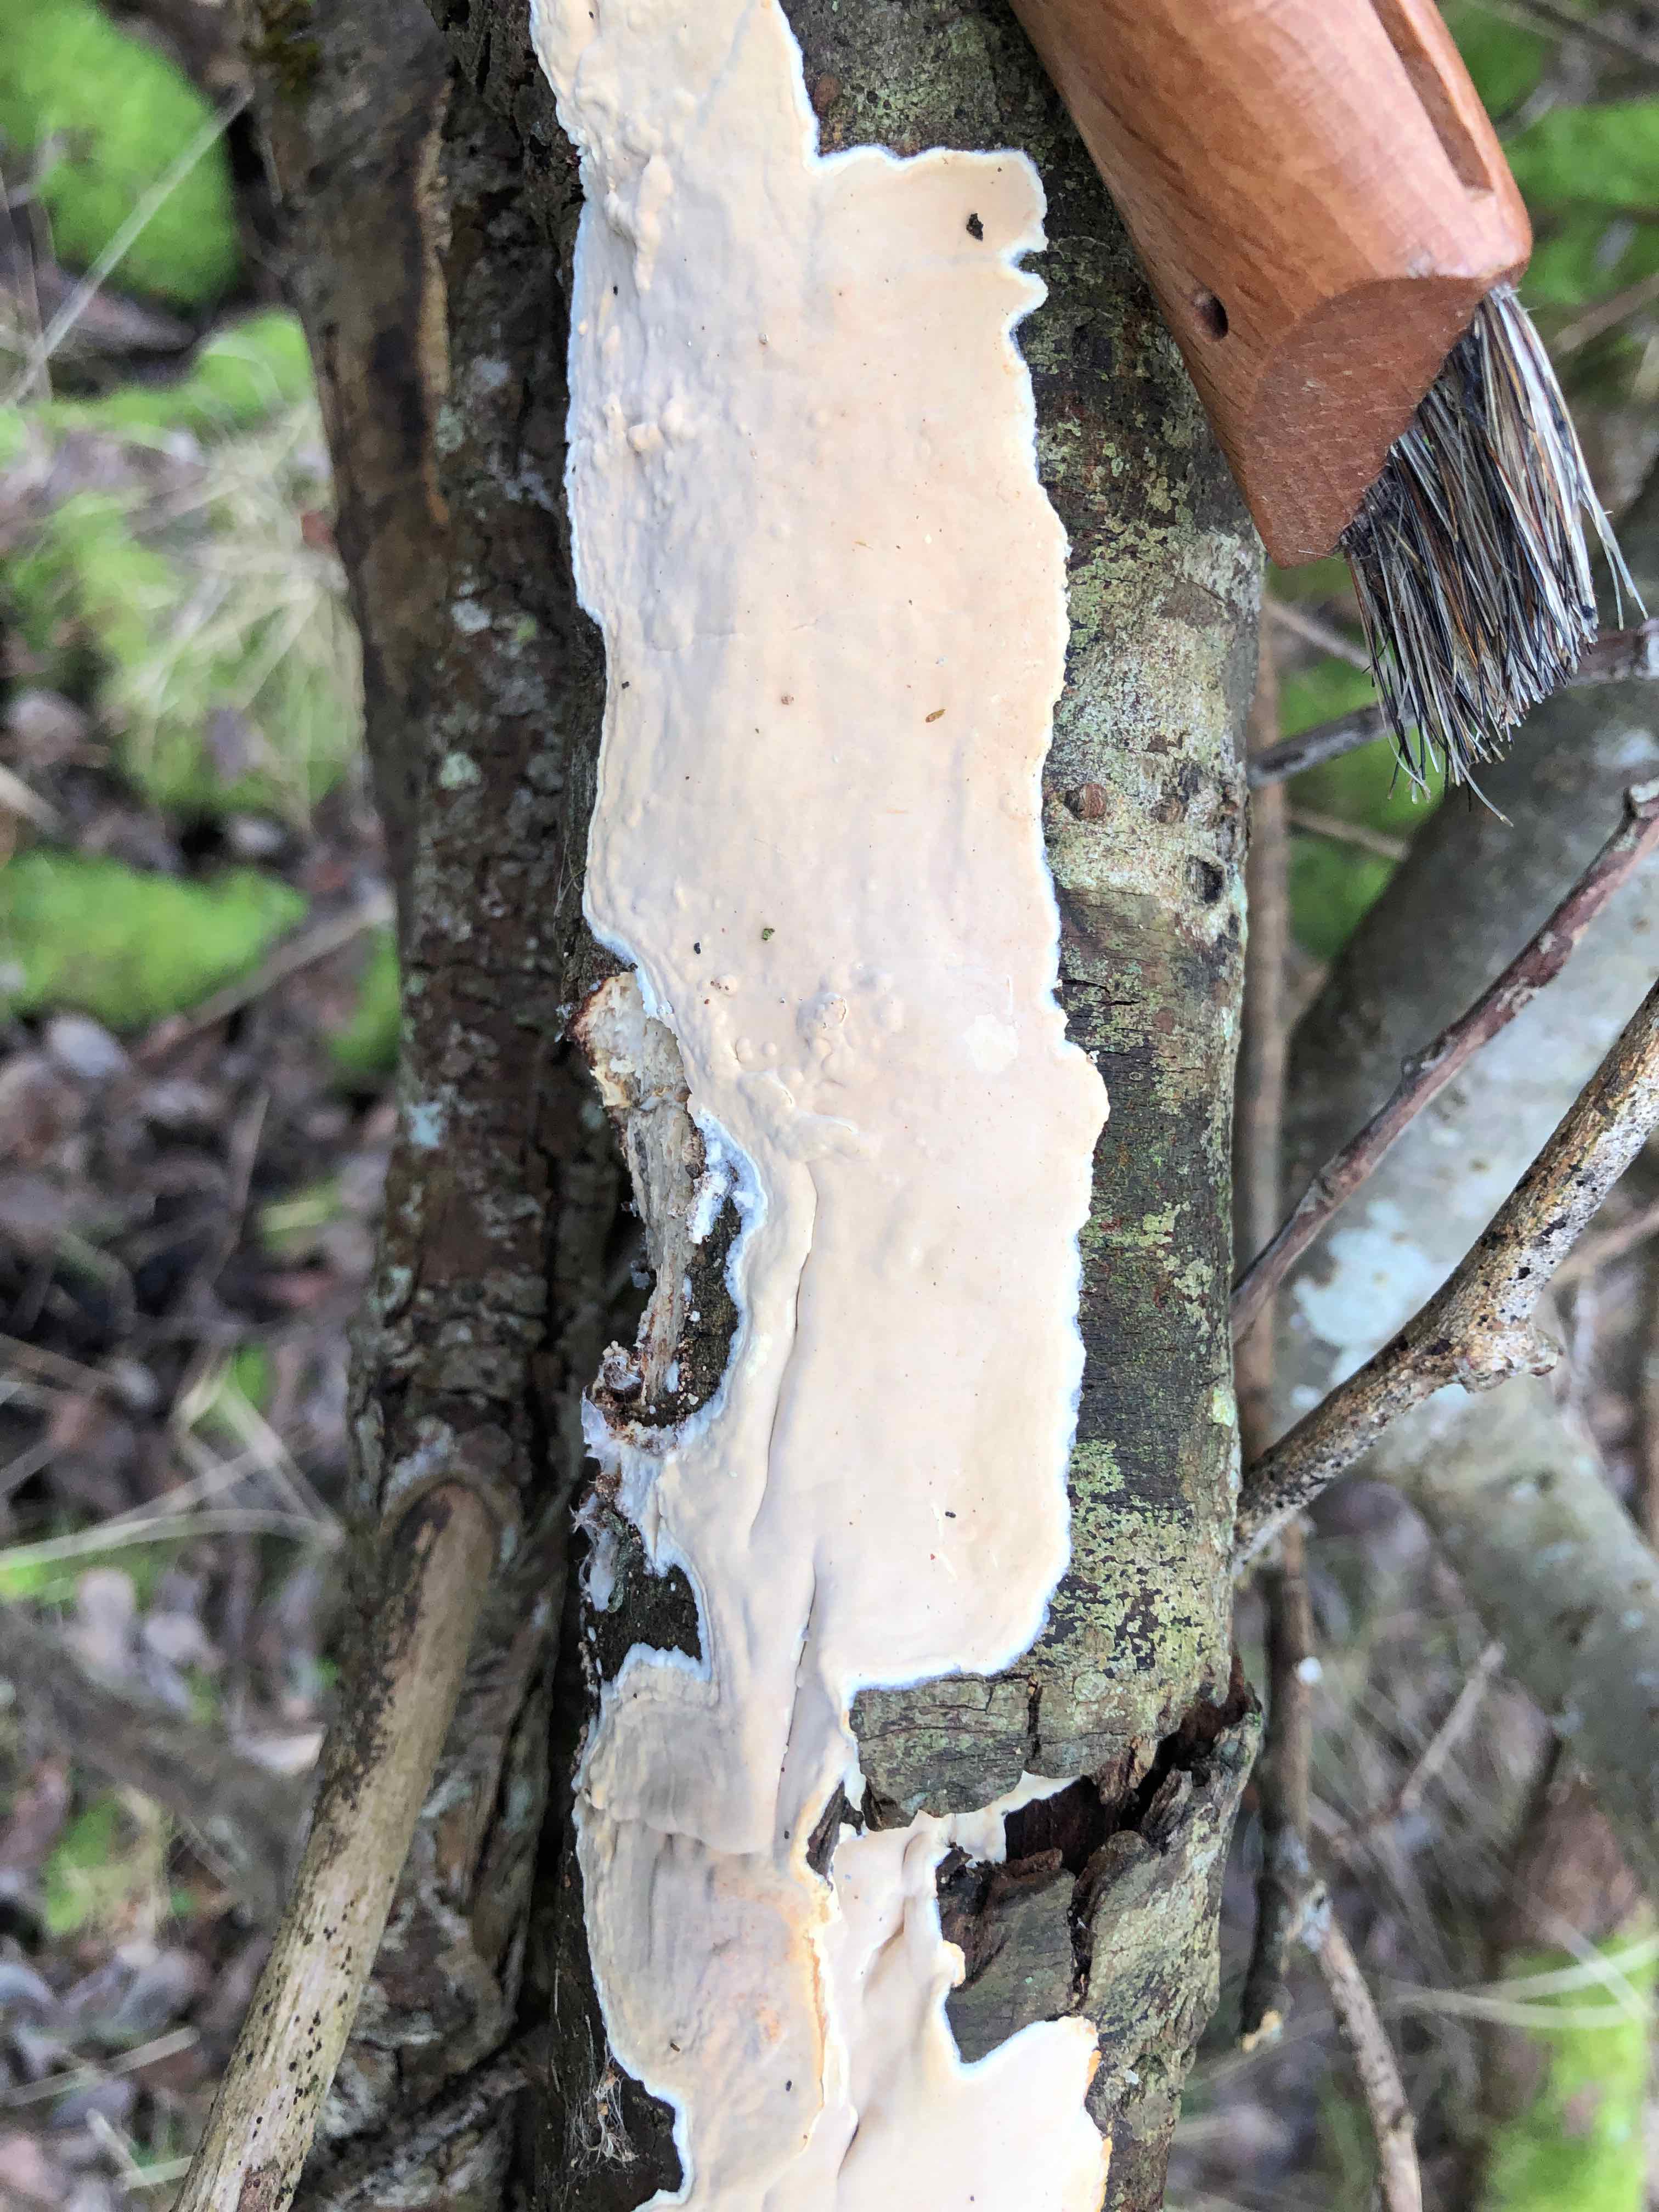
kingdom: Fungi
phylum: Basidiomycota
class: Agaricomycetes
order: Russulales
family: Peniophoraceae
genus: Scytinostroma
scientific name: Scytinostroma hemidichophyticum
